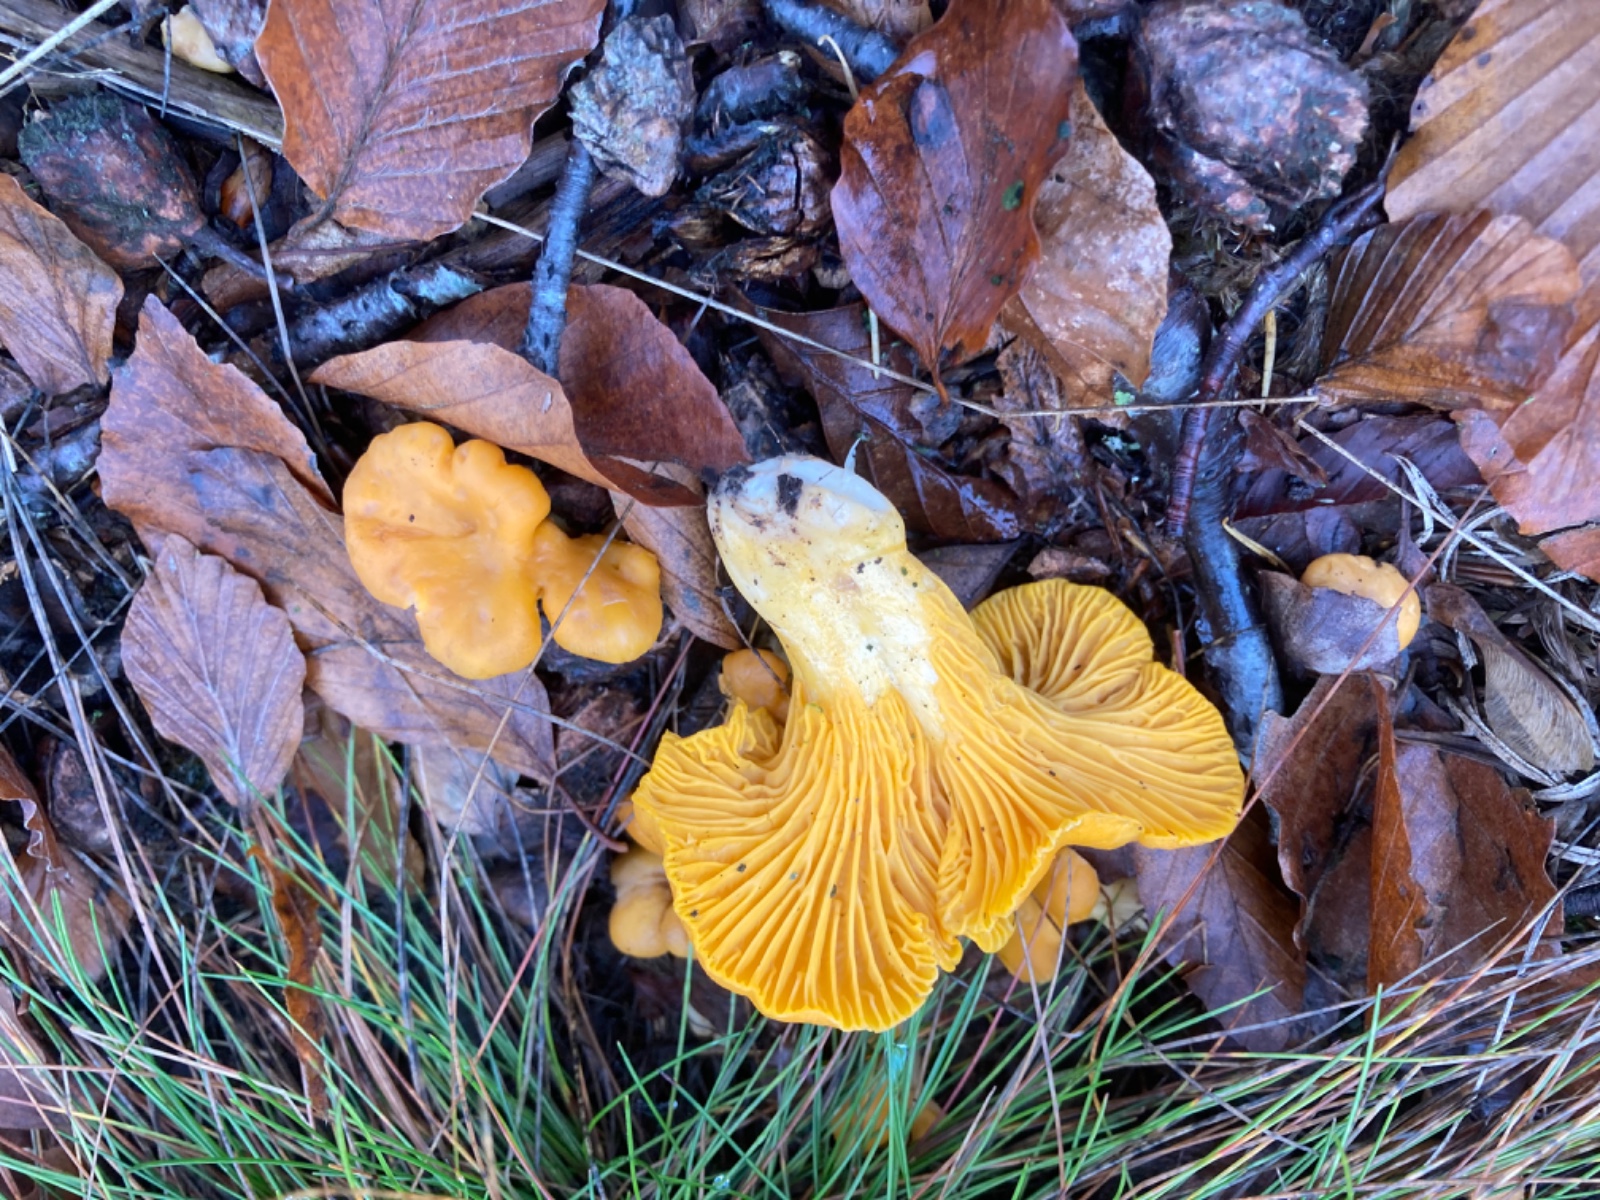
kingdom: Fungi
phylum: Basidiomycota
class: Agaricomycetes
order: Cantharellales
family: Hydnaceae
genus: Cantharellus
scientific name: Cantharellus cibarius
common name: almindelig kantarel
